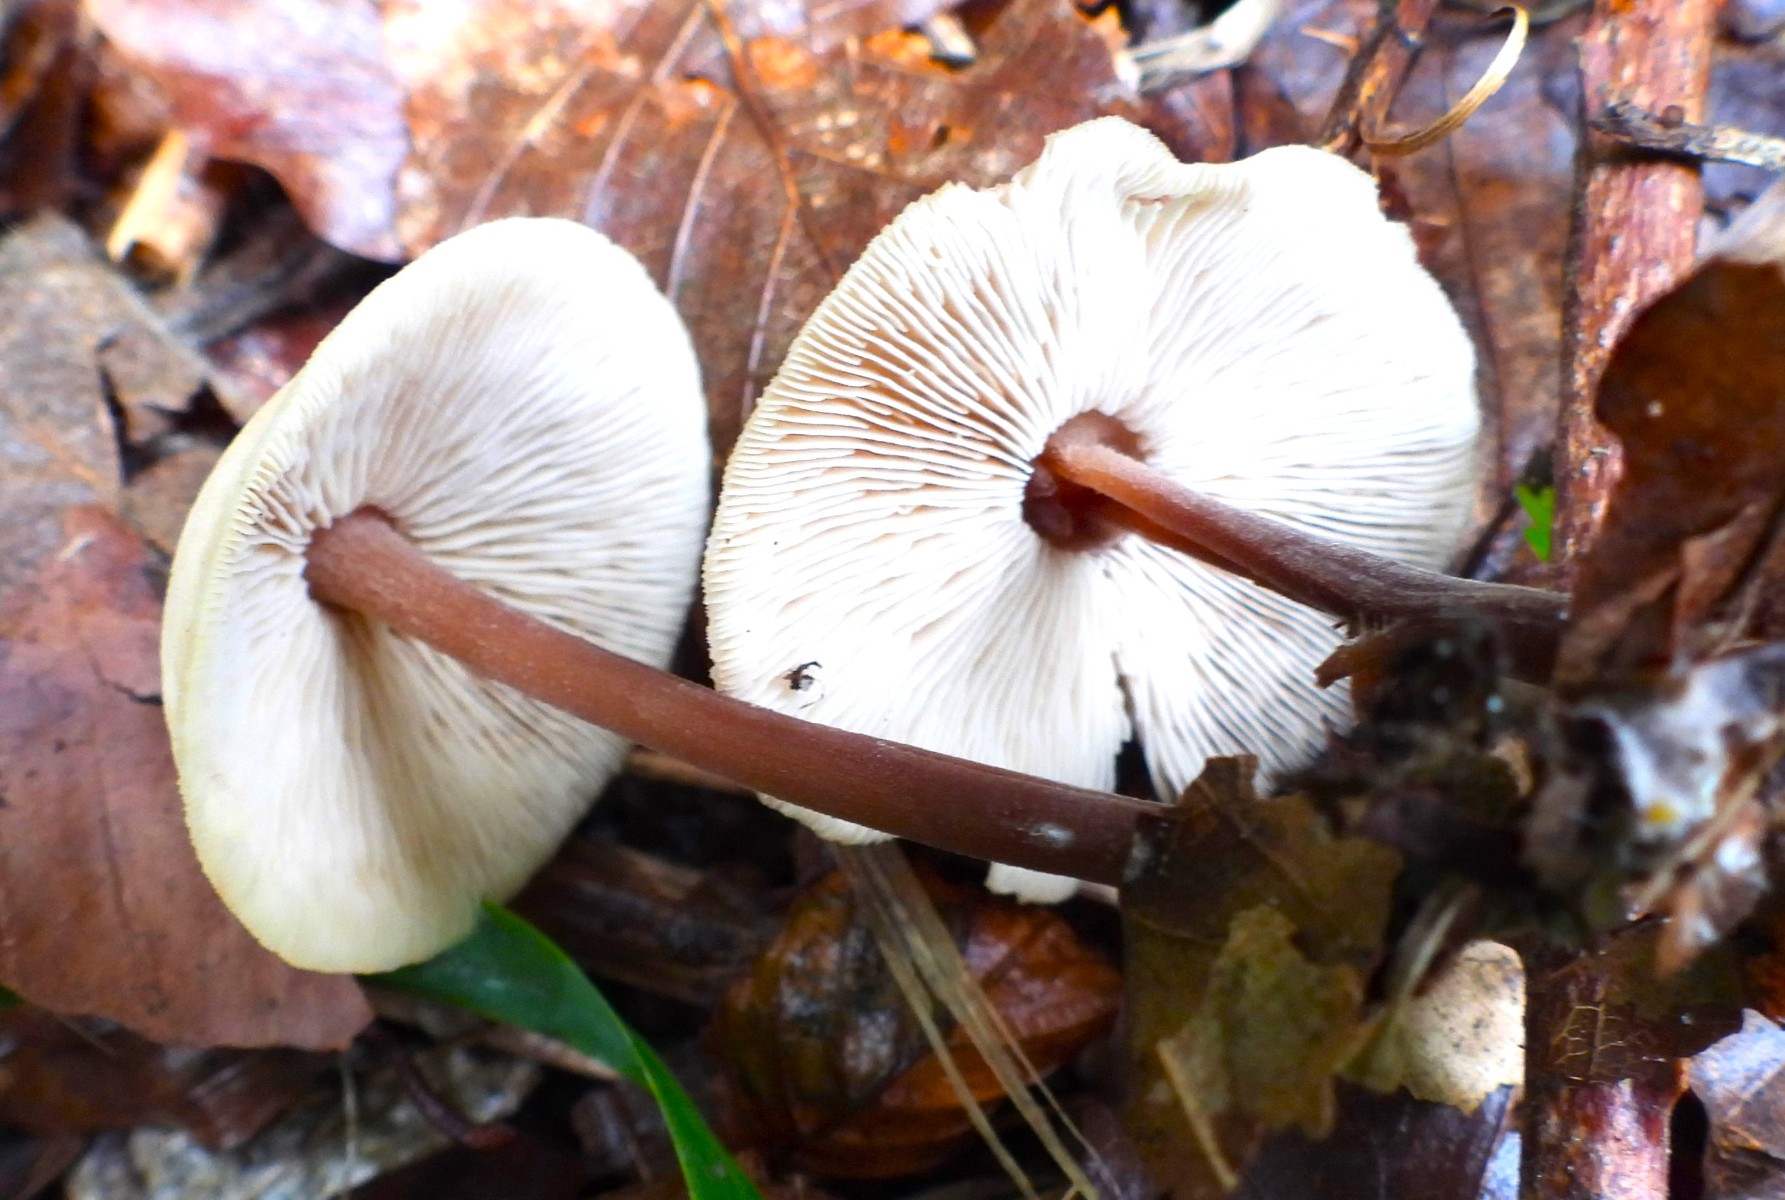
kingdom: Fungi
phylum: Basidiomycota
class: Agaricomycetes
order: Agaricales
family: Omphalotaceae
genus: Gymnopus
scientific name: Gymnopus erythropus
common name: rødstokket fladhat
